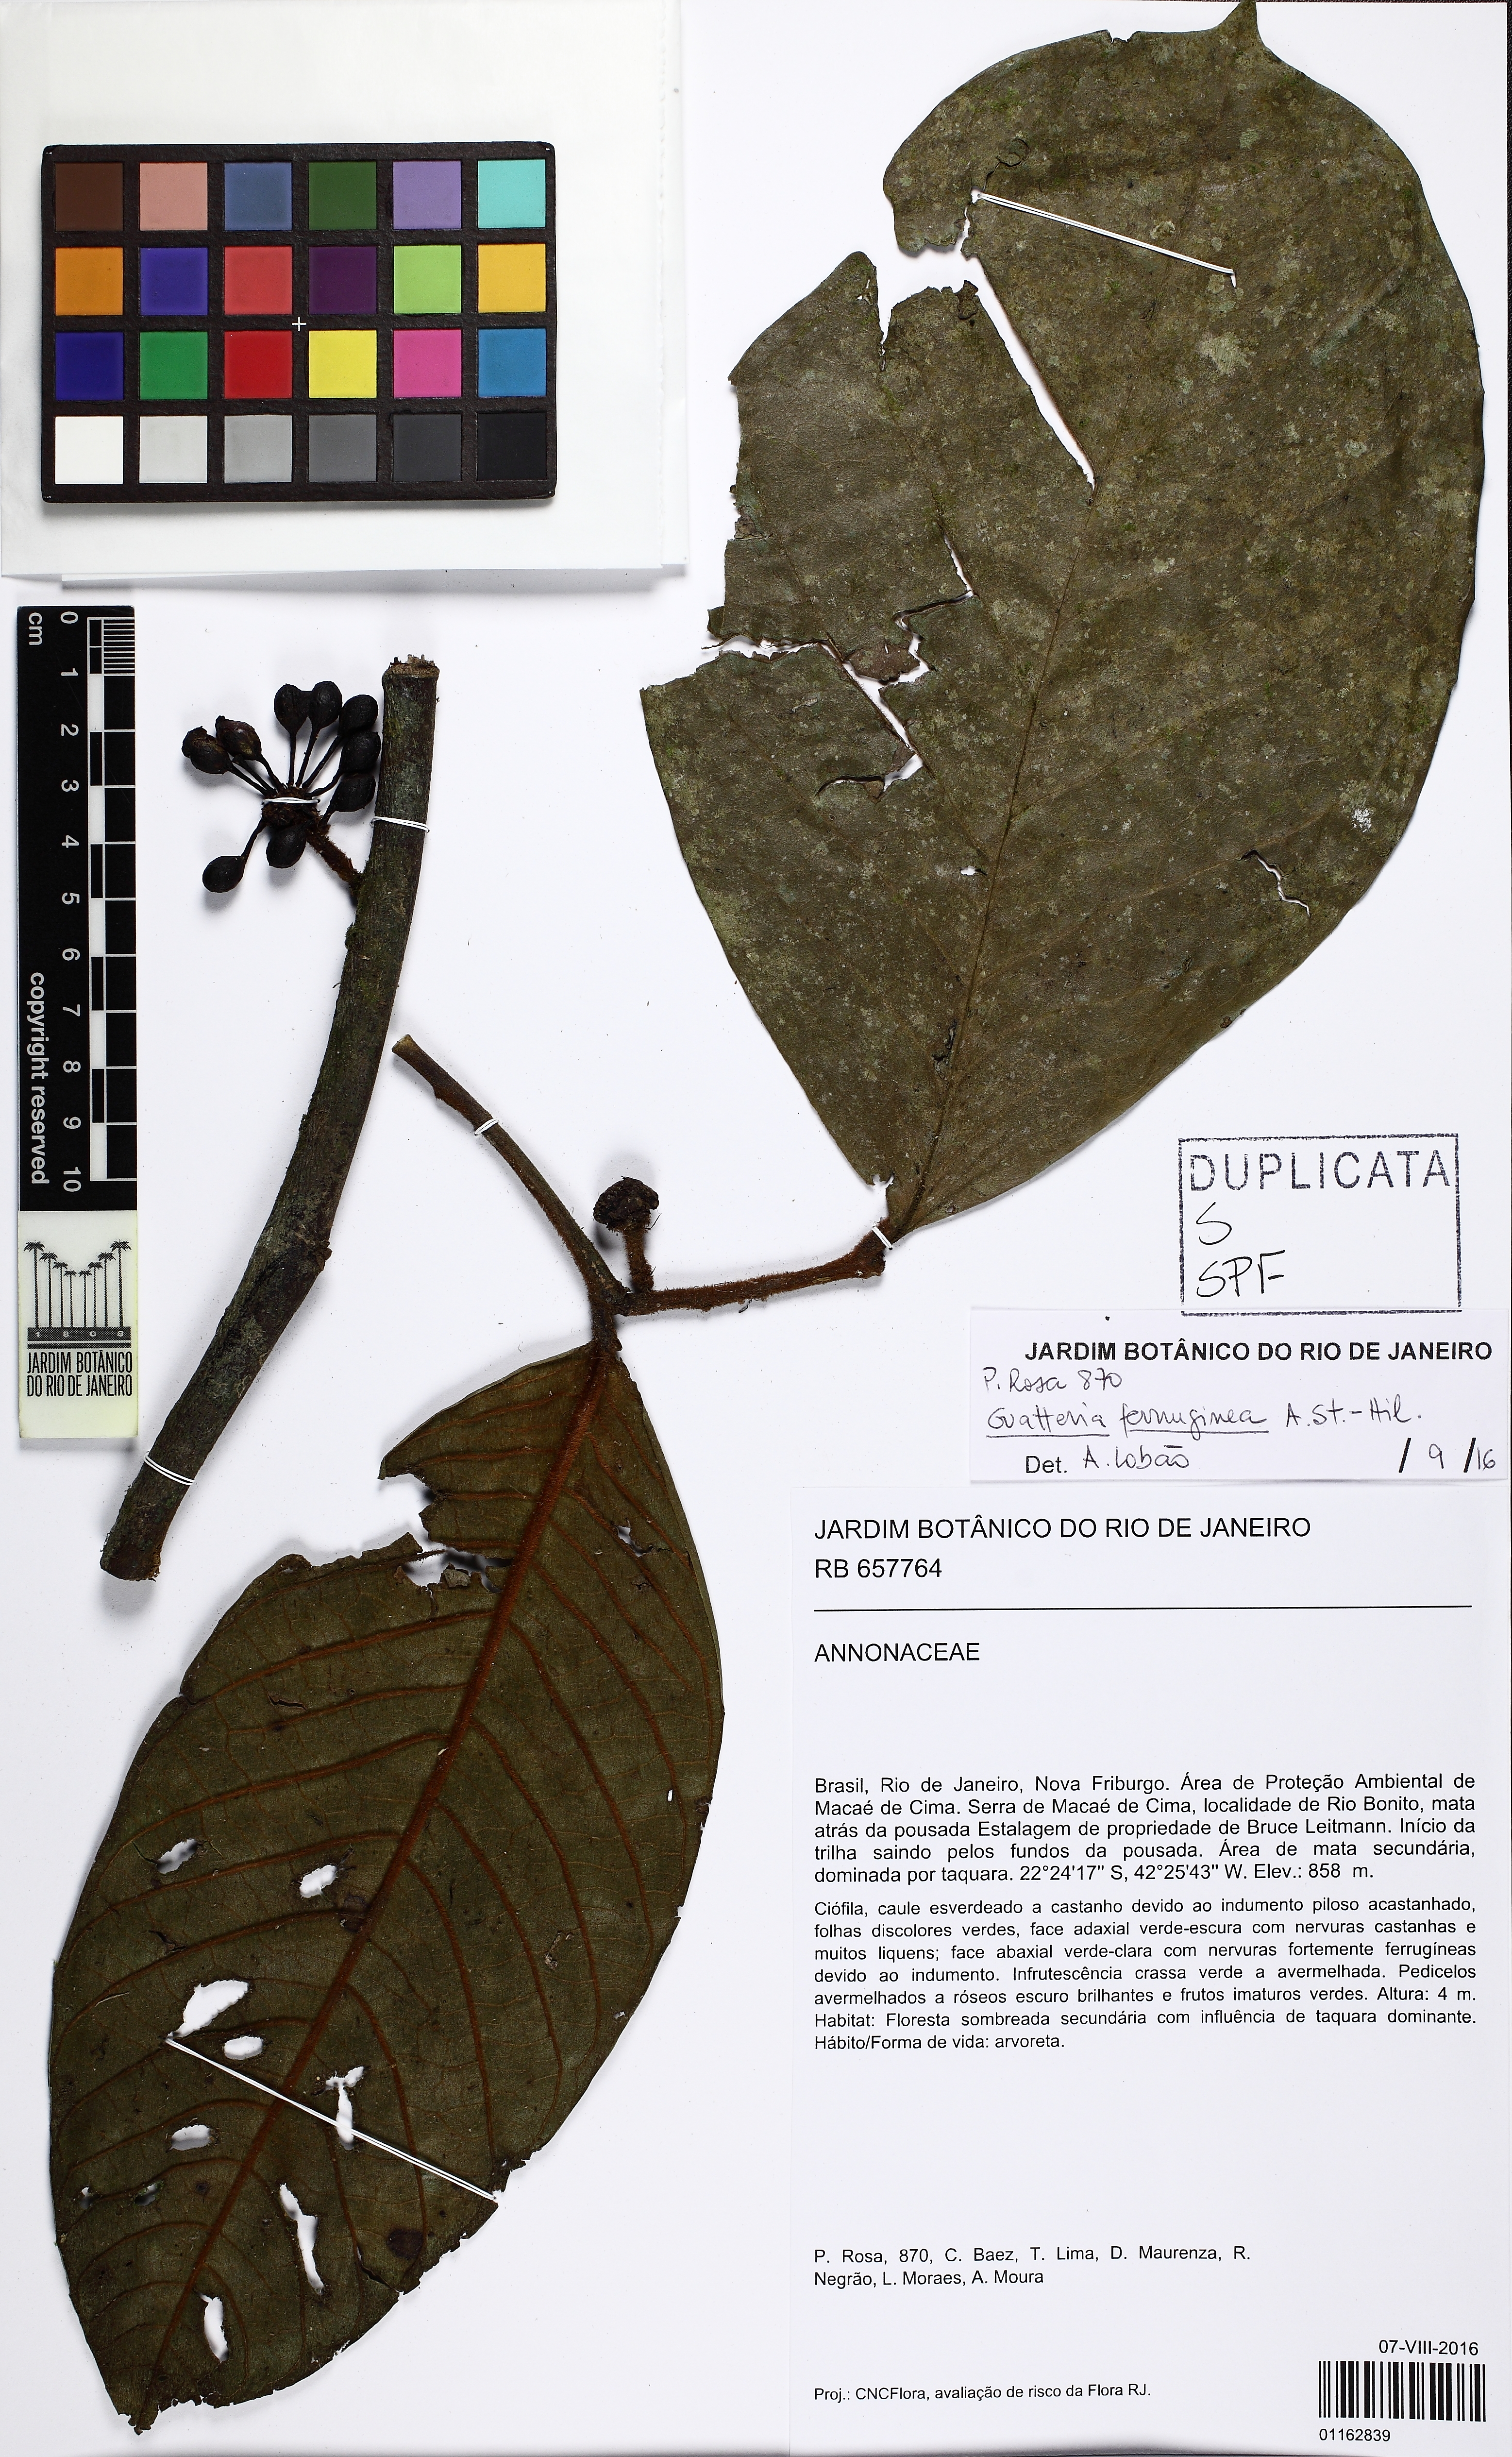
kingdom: Plantae
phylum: Tracheophyta
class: Magnoliopsida
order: Magnoliales
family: Annonaceae
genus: Guatteria
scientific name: Guatteria ferruginea
